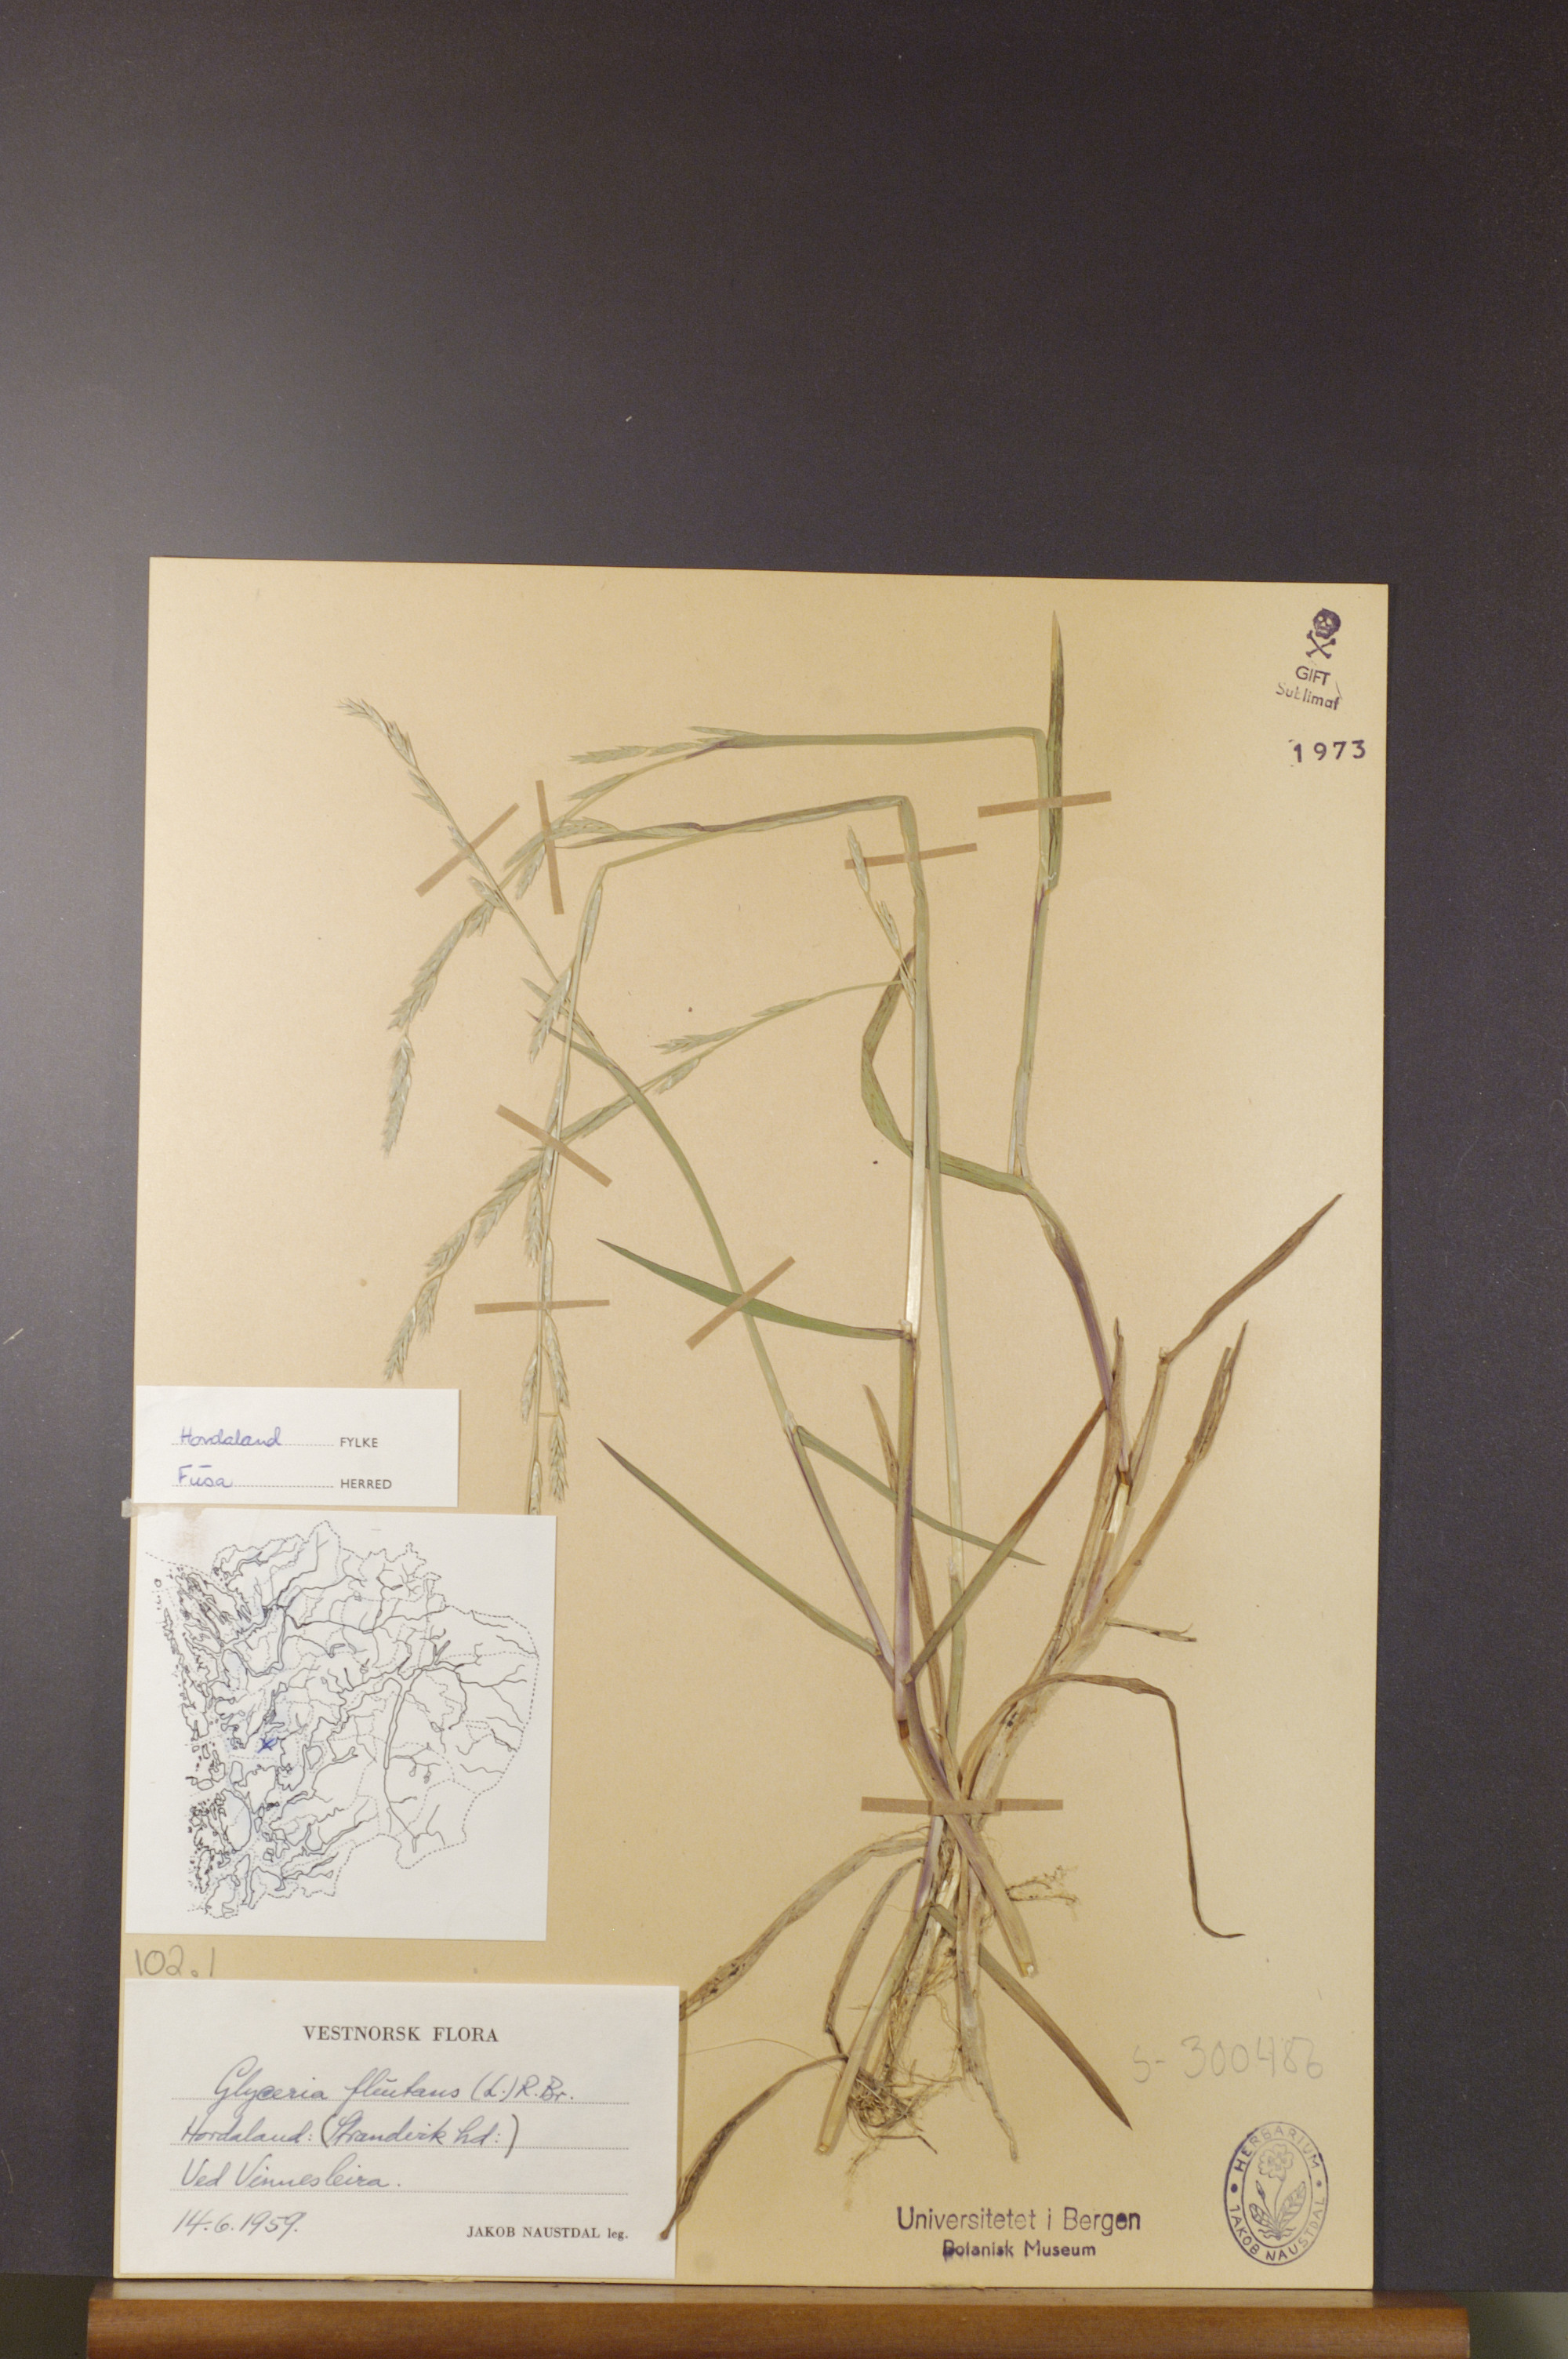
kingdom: Plantae
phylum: Tracheophyta
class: Liliopsida
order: Poales
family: Poaceae
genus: Glyceria
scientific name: Glyceria fluitans
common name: Floating sweet-grass
